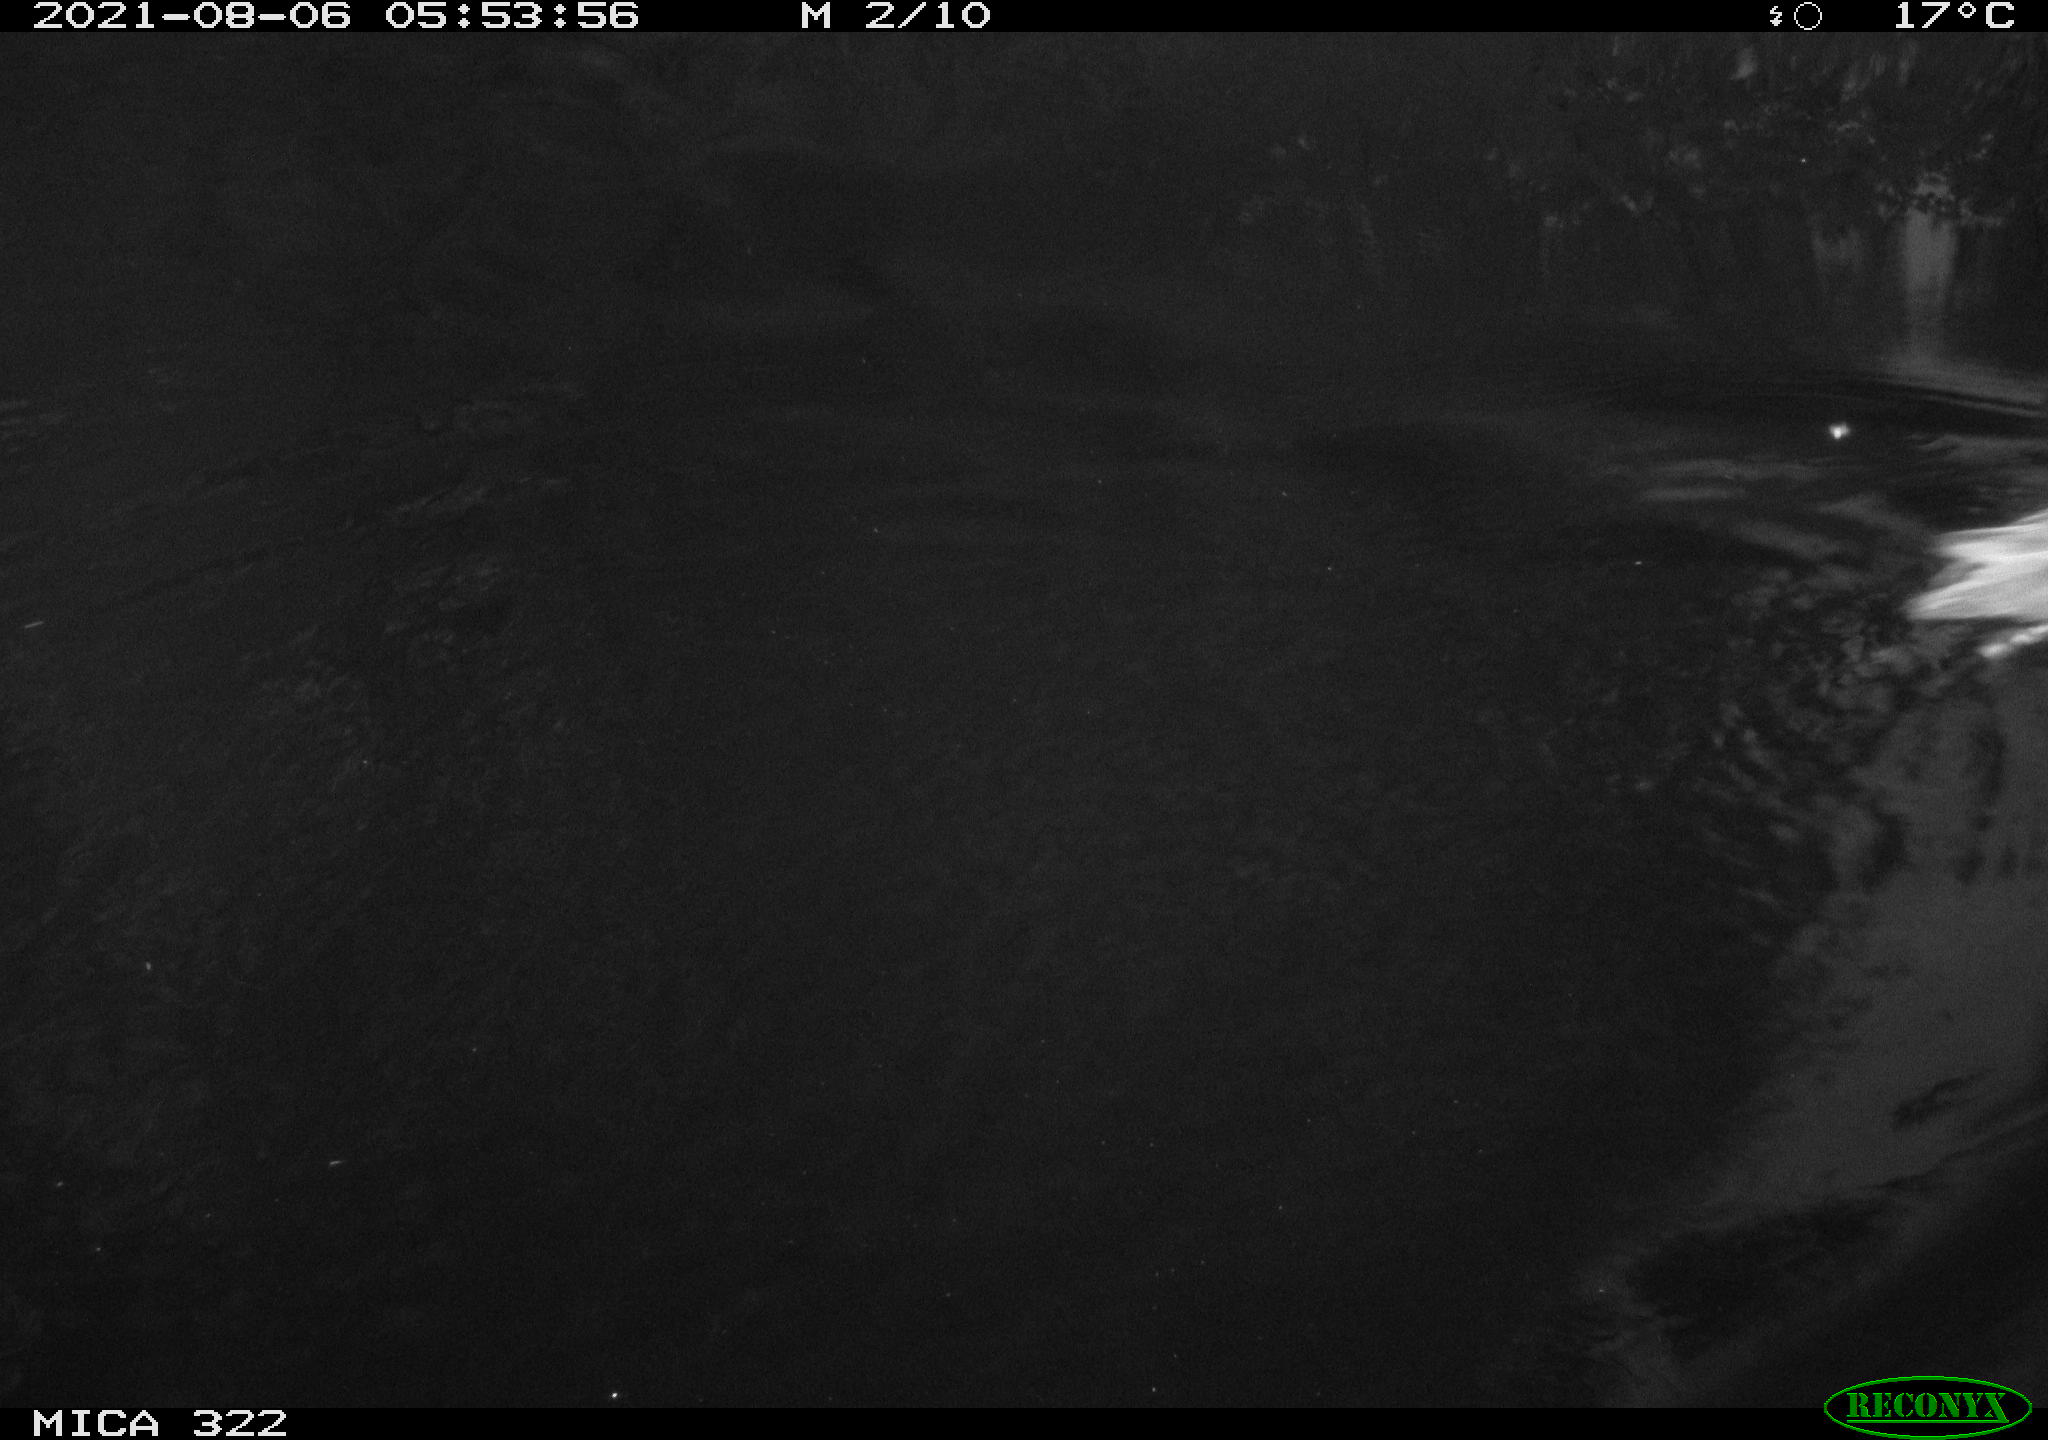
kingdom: Animalia
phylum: Chordata
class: Aves
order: Gruiformes
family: Rallidae
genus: Gallinula
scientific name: Gallinula chloropus
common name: Common moorhen
